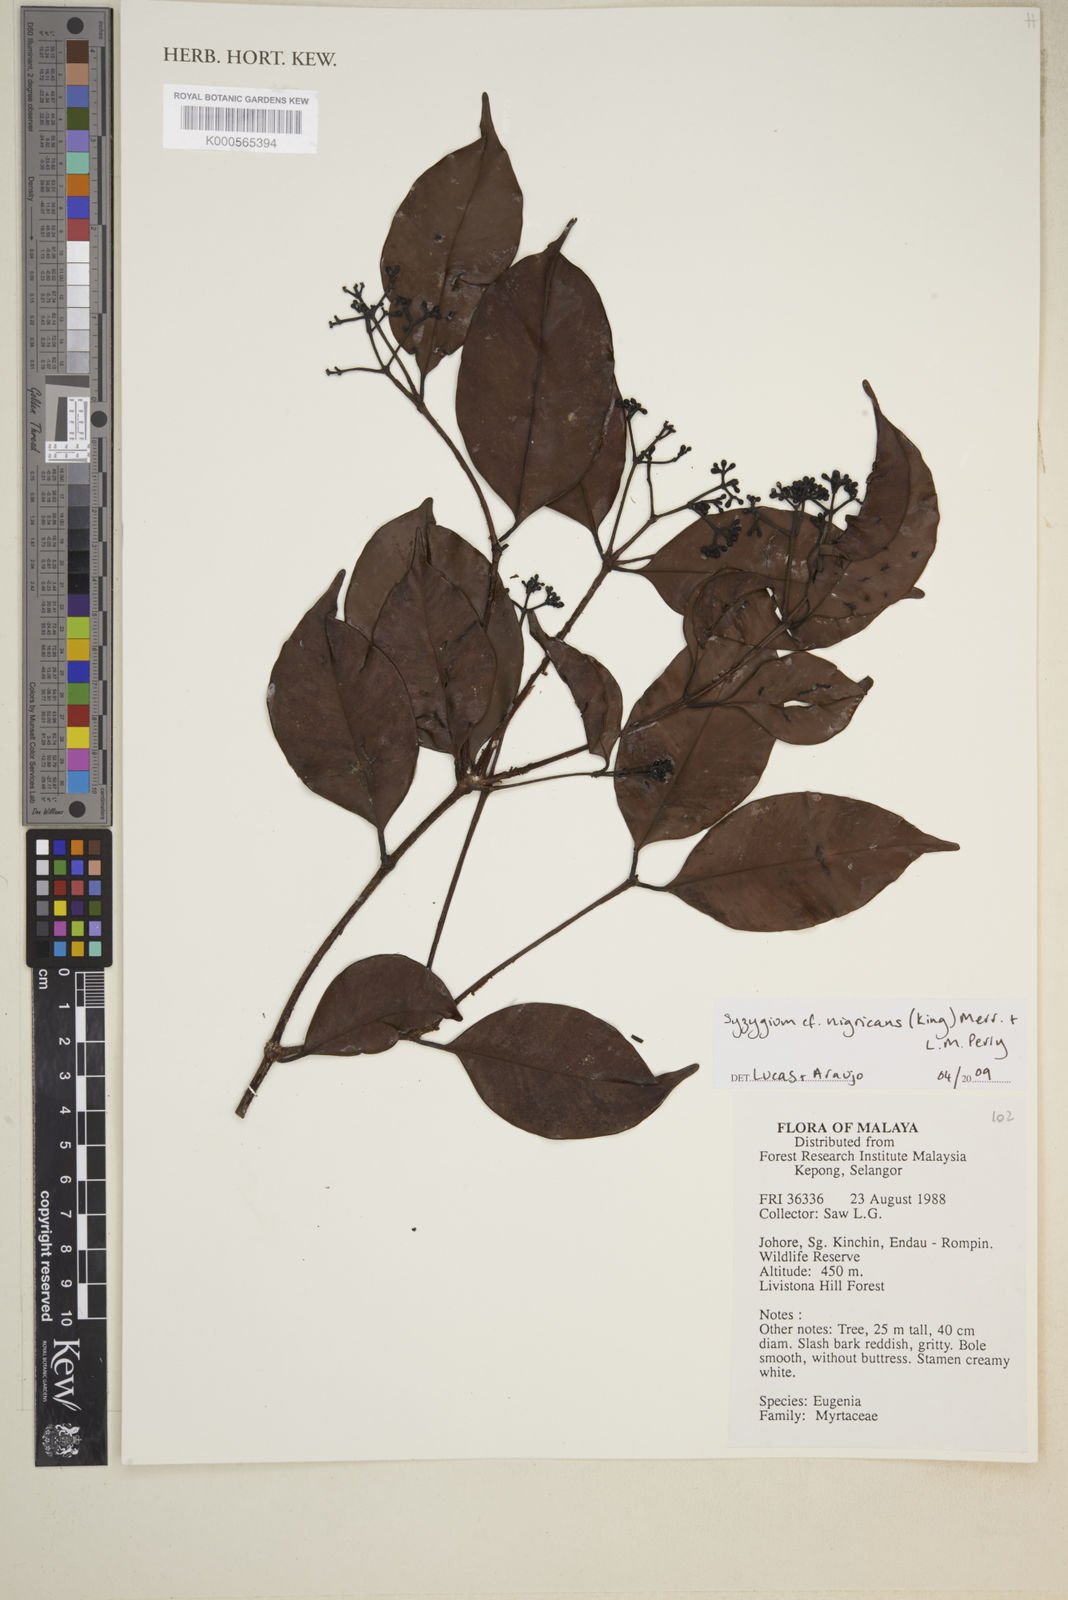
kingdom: Plantae
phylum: Tracheophyta
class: Magnoliopsida
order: Myrtales
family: Myrtaceae
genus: Syzygium
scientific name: Syzygium nigricans
